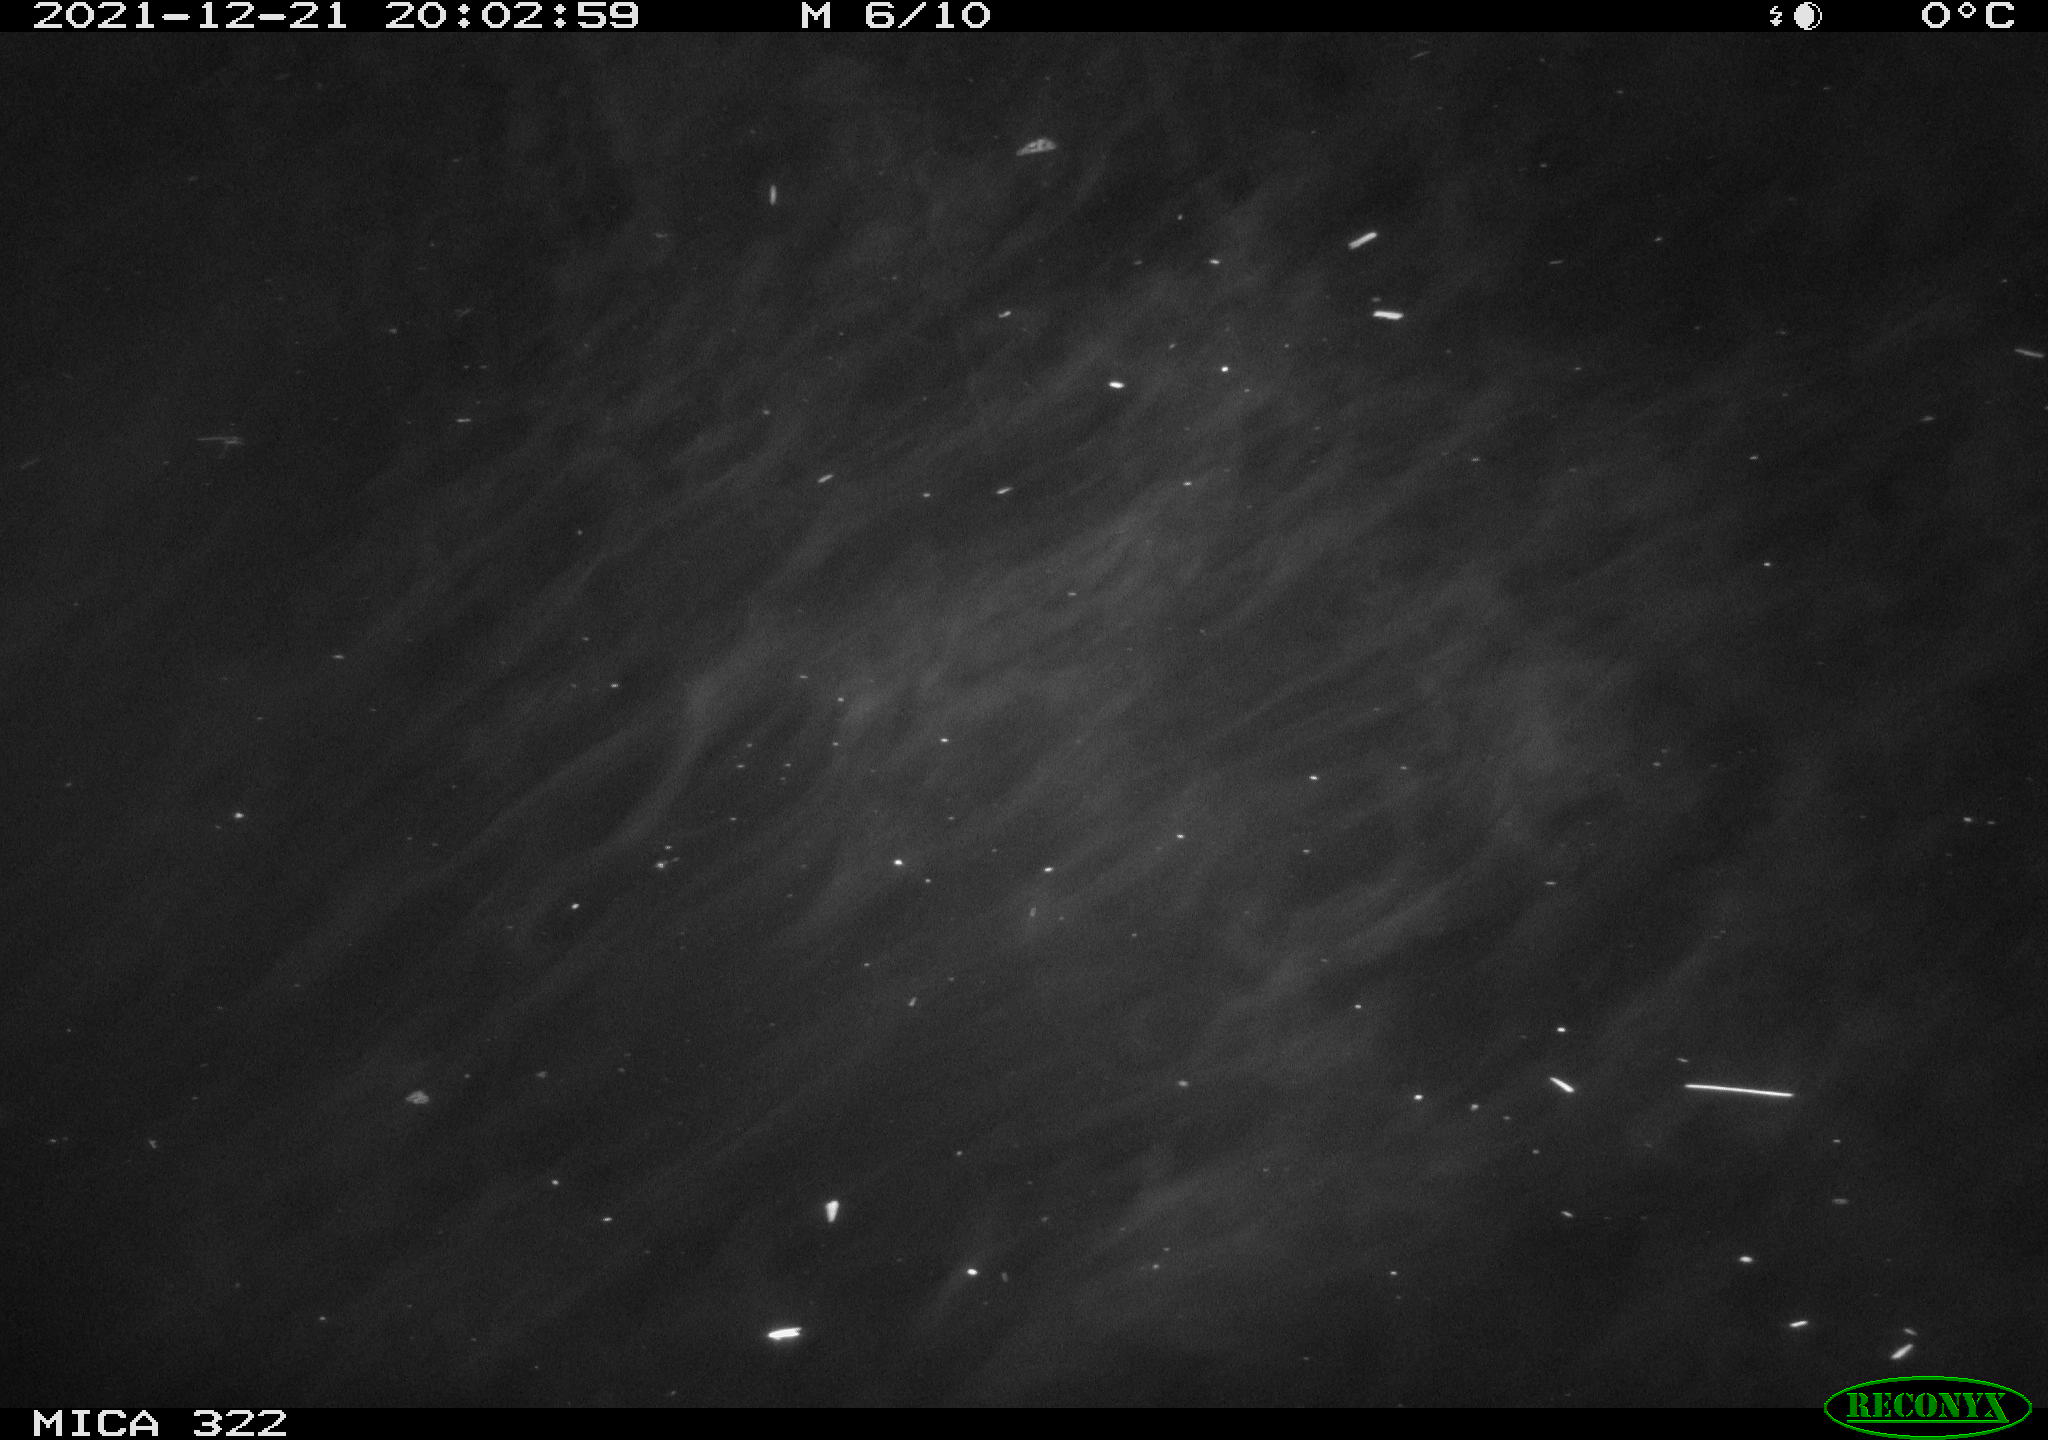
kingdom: Animalia
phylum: Chordata
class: Aves
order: Anseriformes
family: Anatidae
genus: Anas
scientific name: Anas
